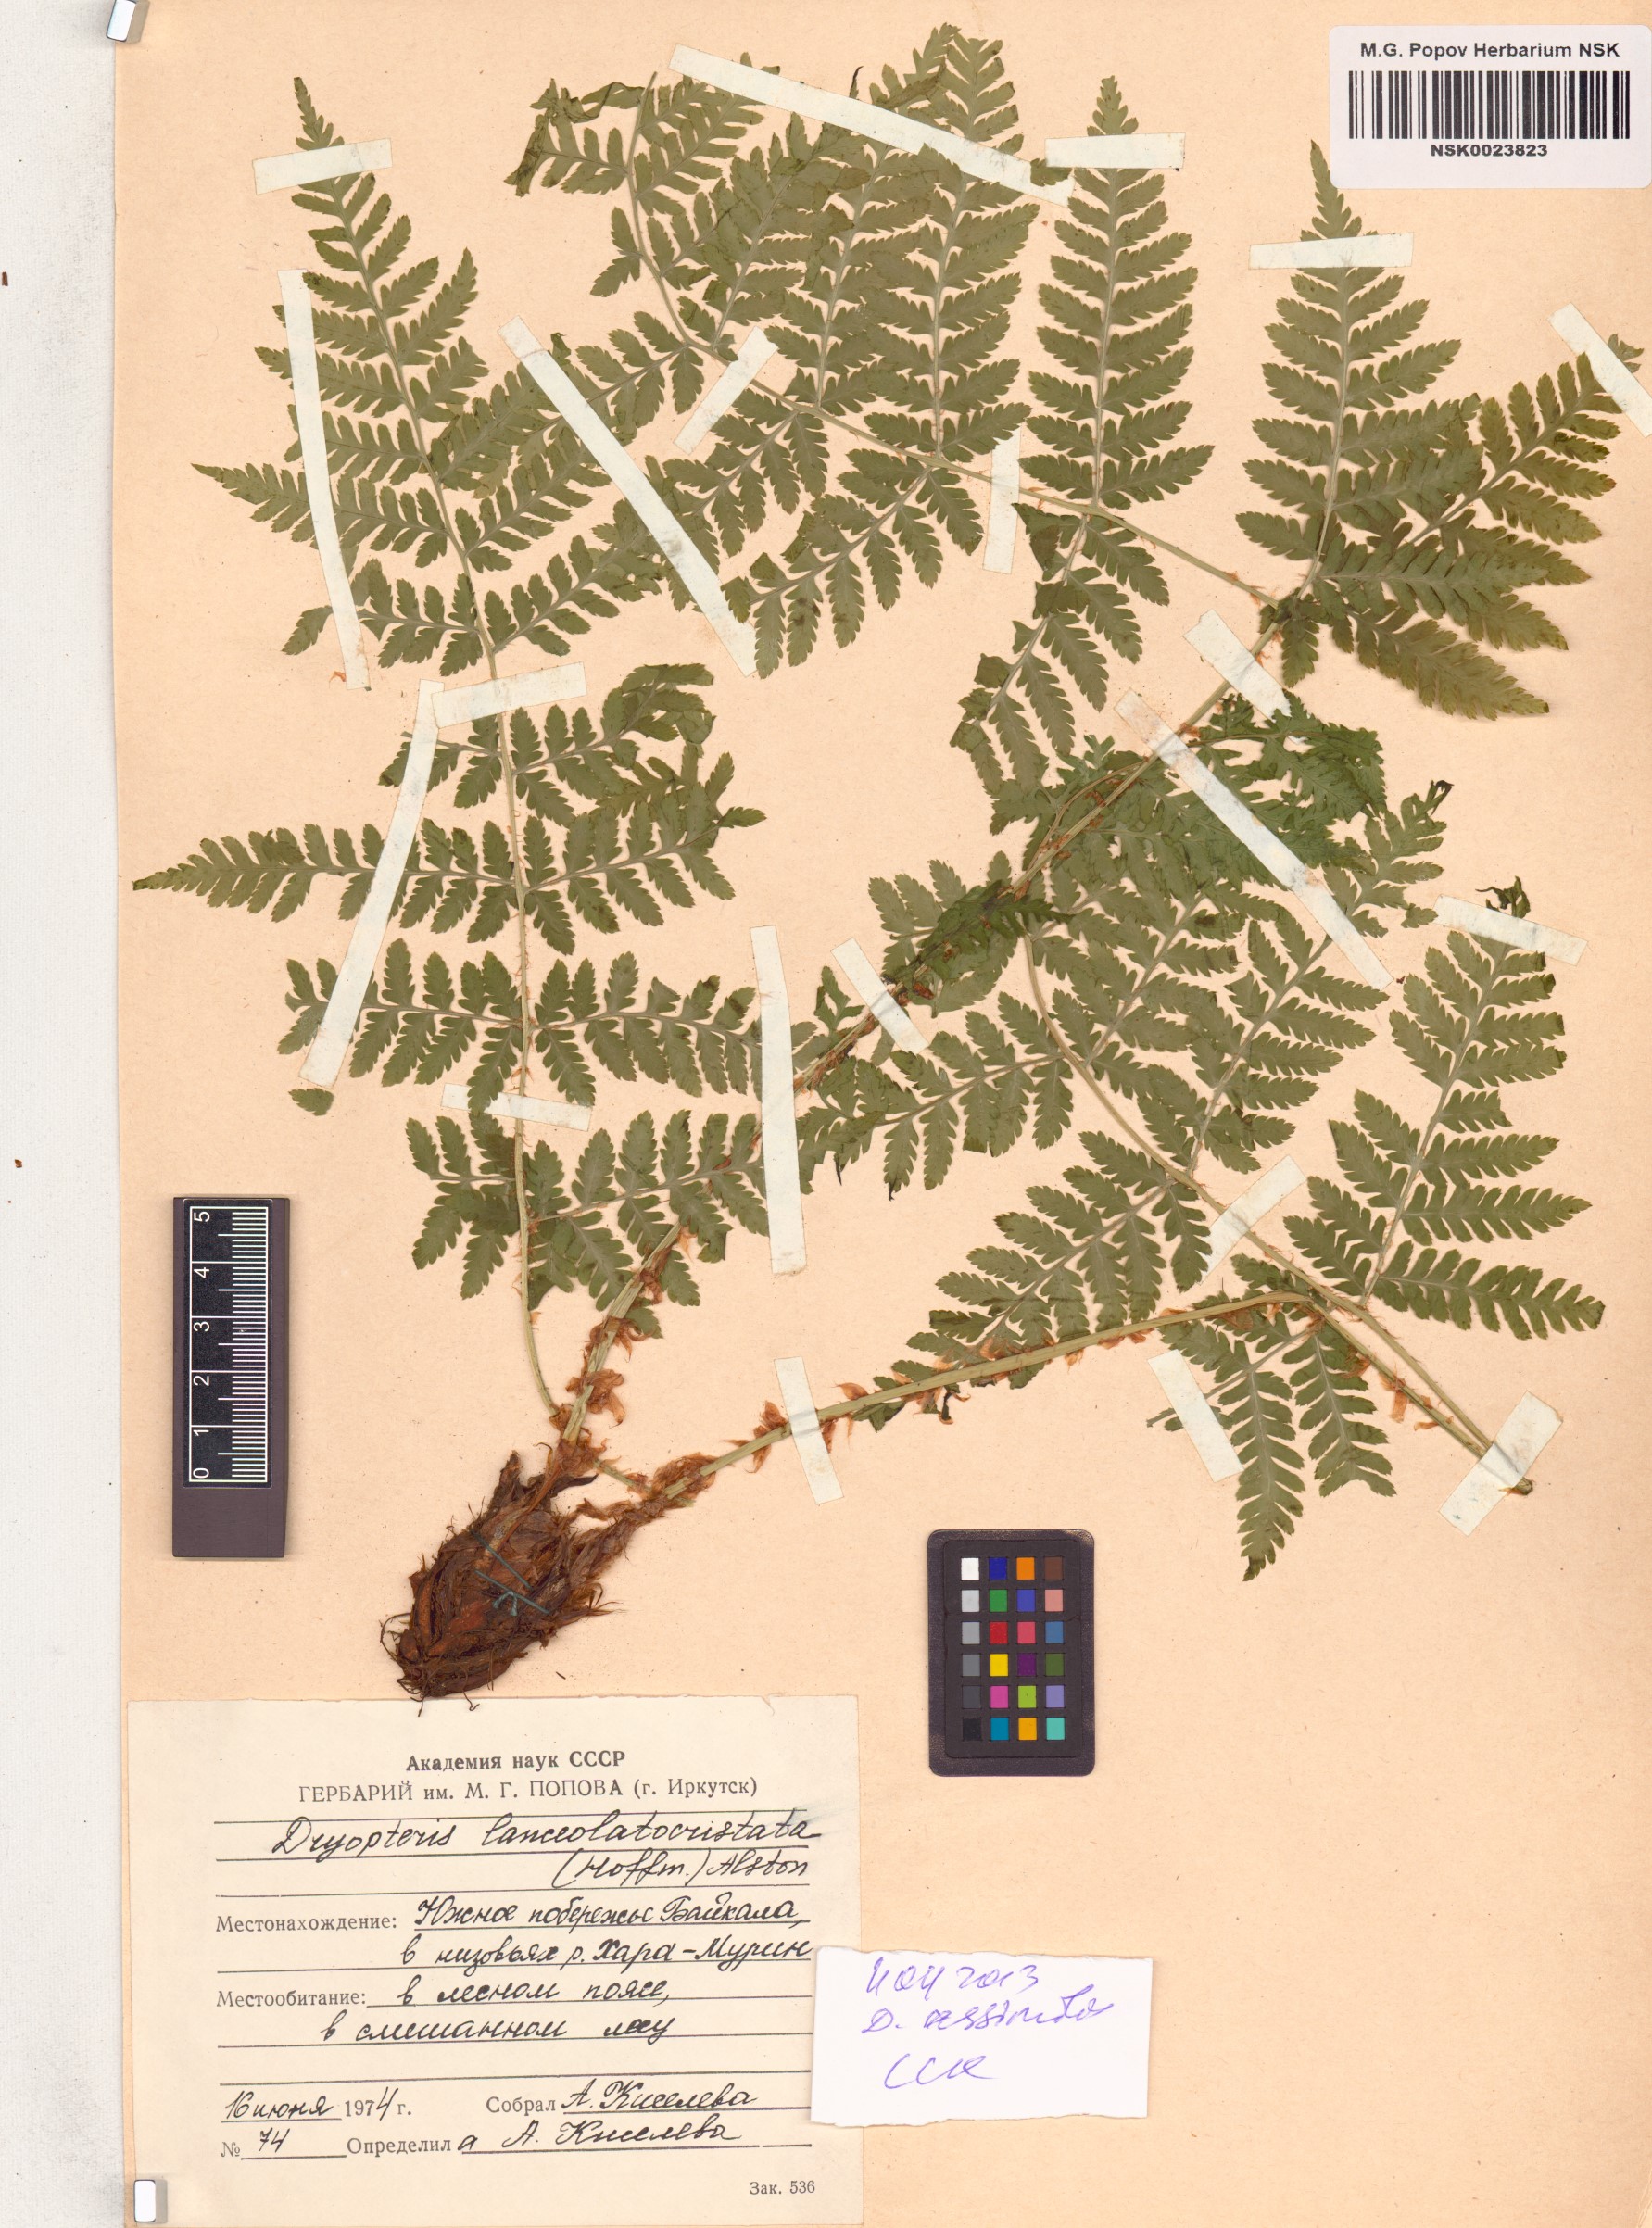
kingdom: Plantae
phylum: Tracheophyta
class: Polypodiopsida
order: Polypodiales
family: Dryopteridaceae
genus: Dryopteris
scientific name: Dryopteris expansa
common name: Northern buckler fern
